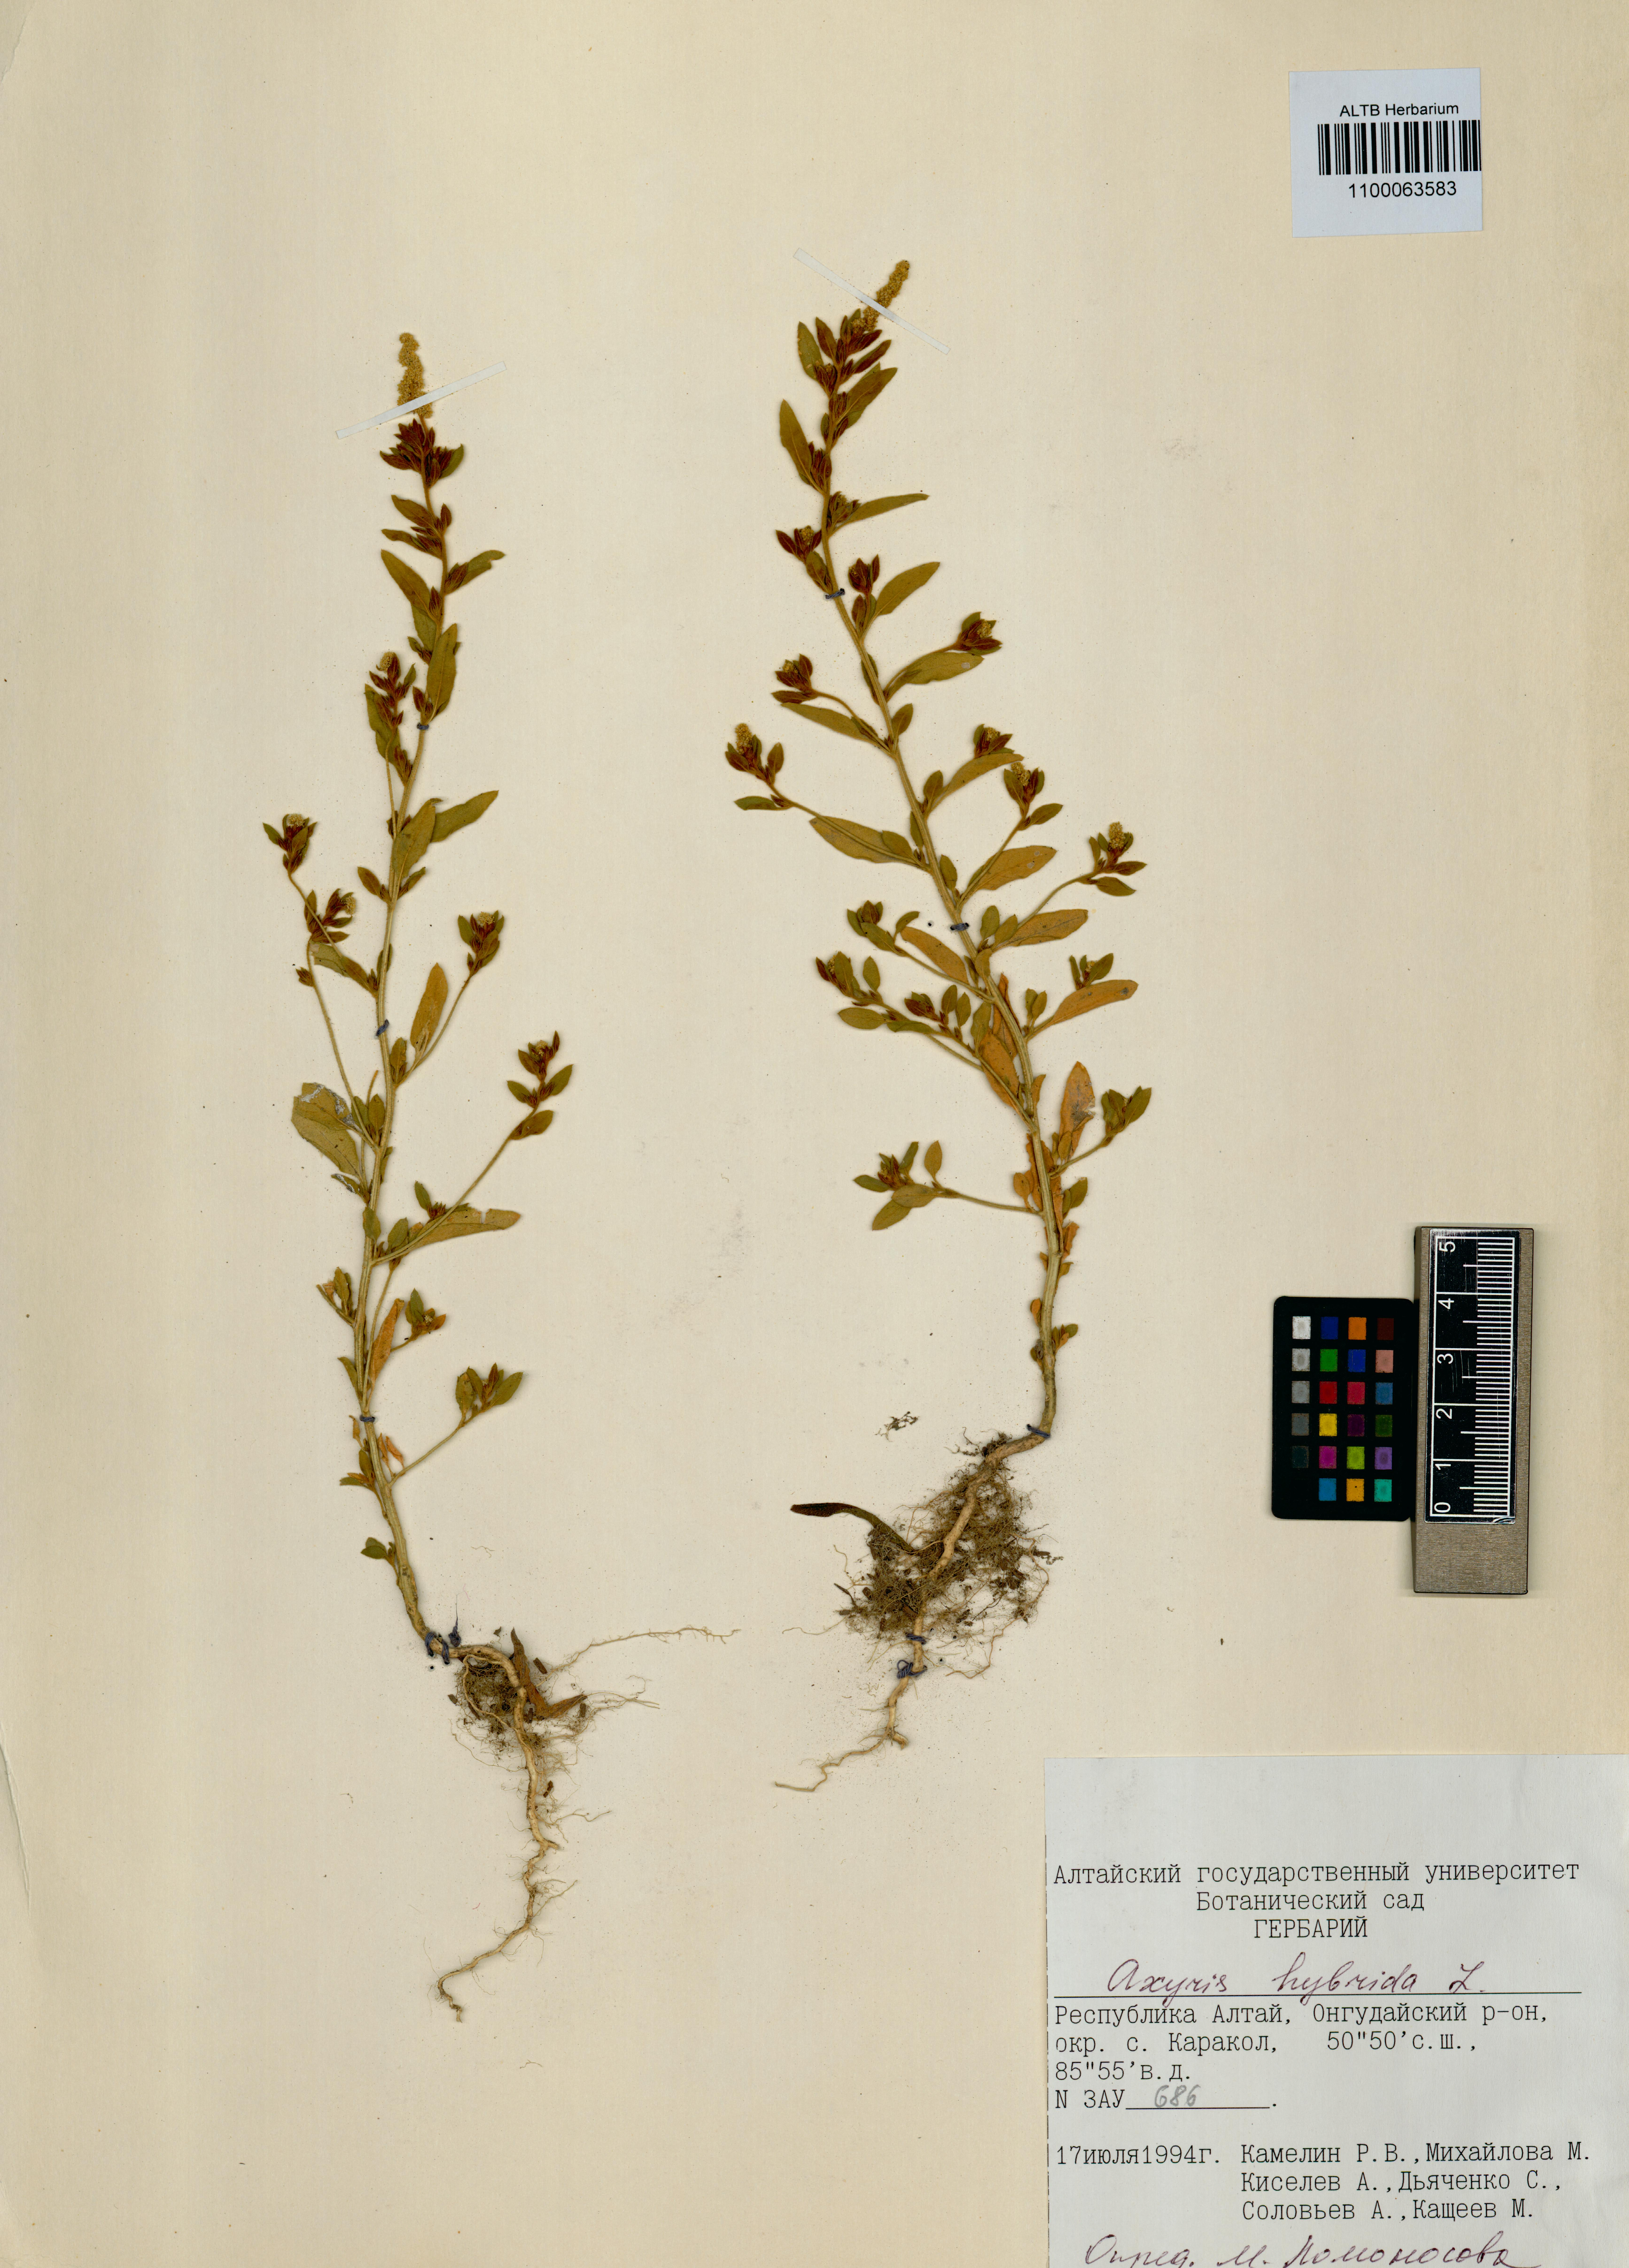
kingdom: Plantae
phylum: Tracheophyta
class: Magnoliopsida
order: Caryophyllales
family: Amaranthaceae
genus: Axyris
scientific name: Axyris hybrida
